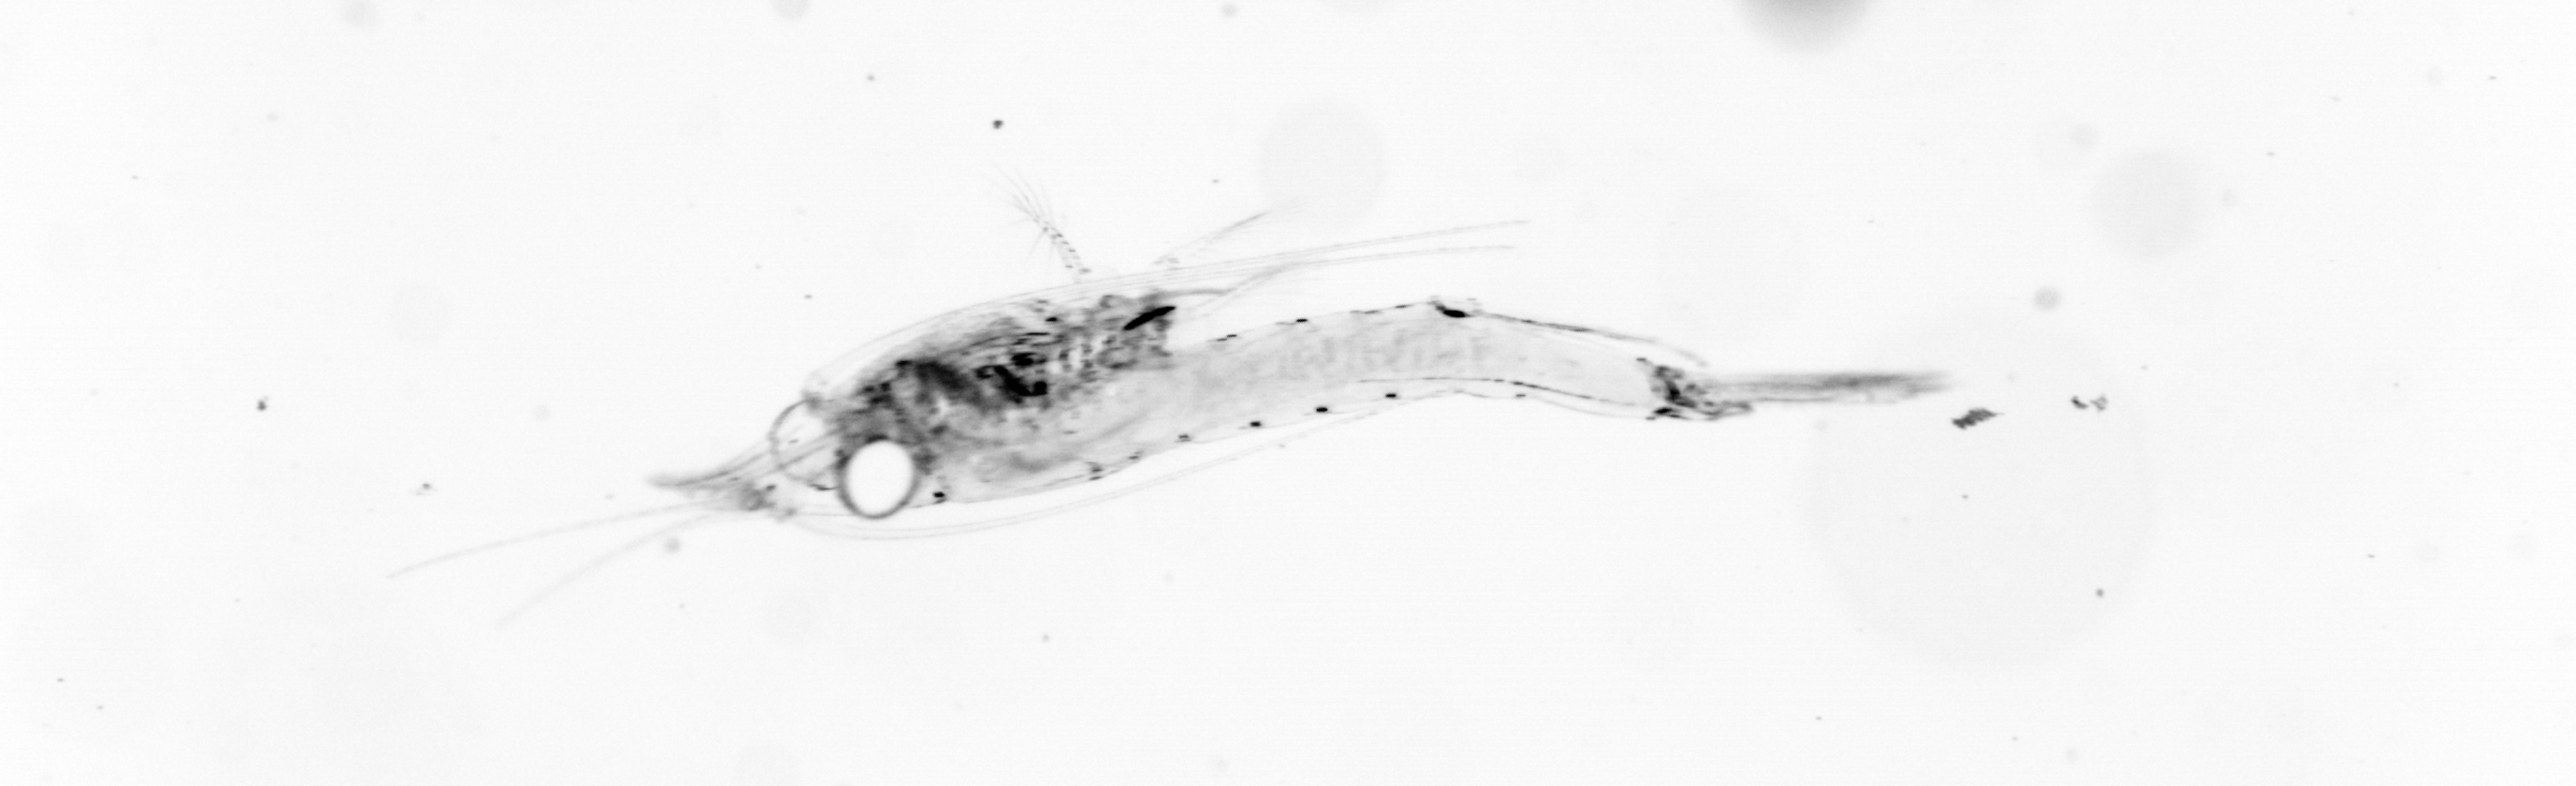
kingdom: Animalia
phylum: Chordata
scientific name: Chordata
